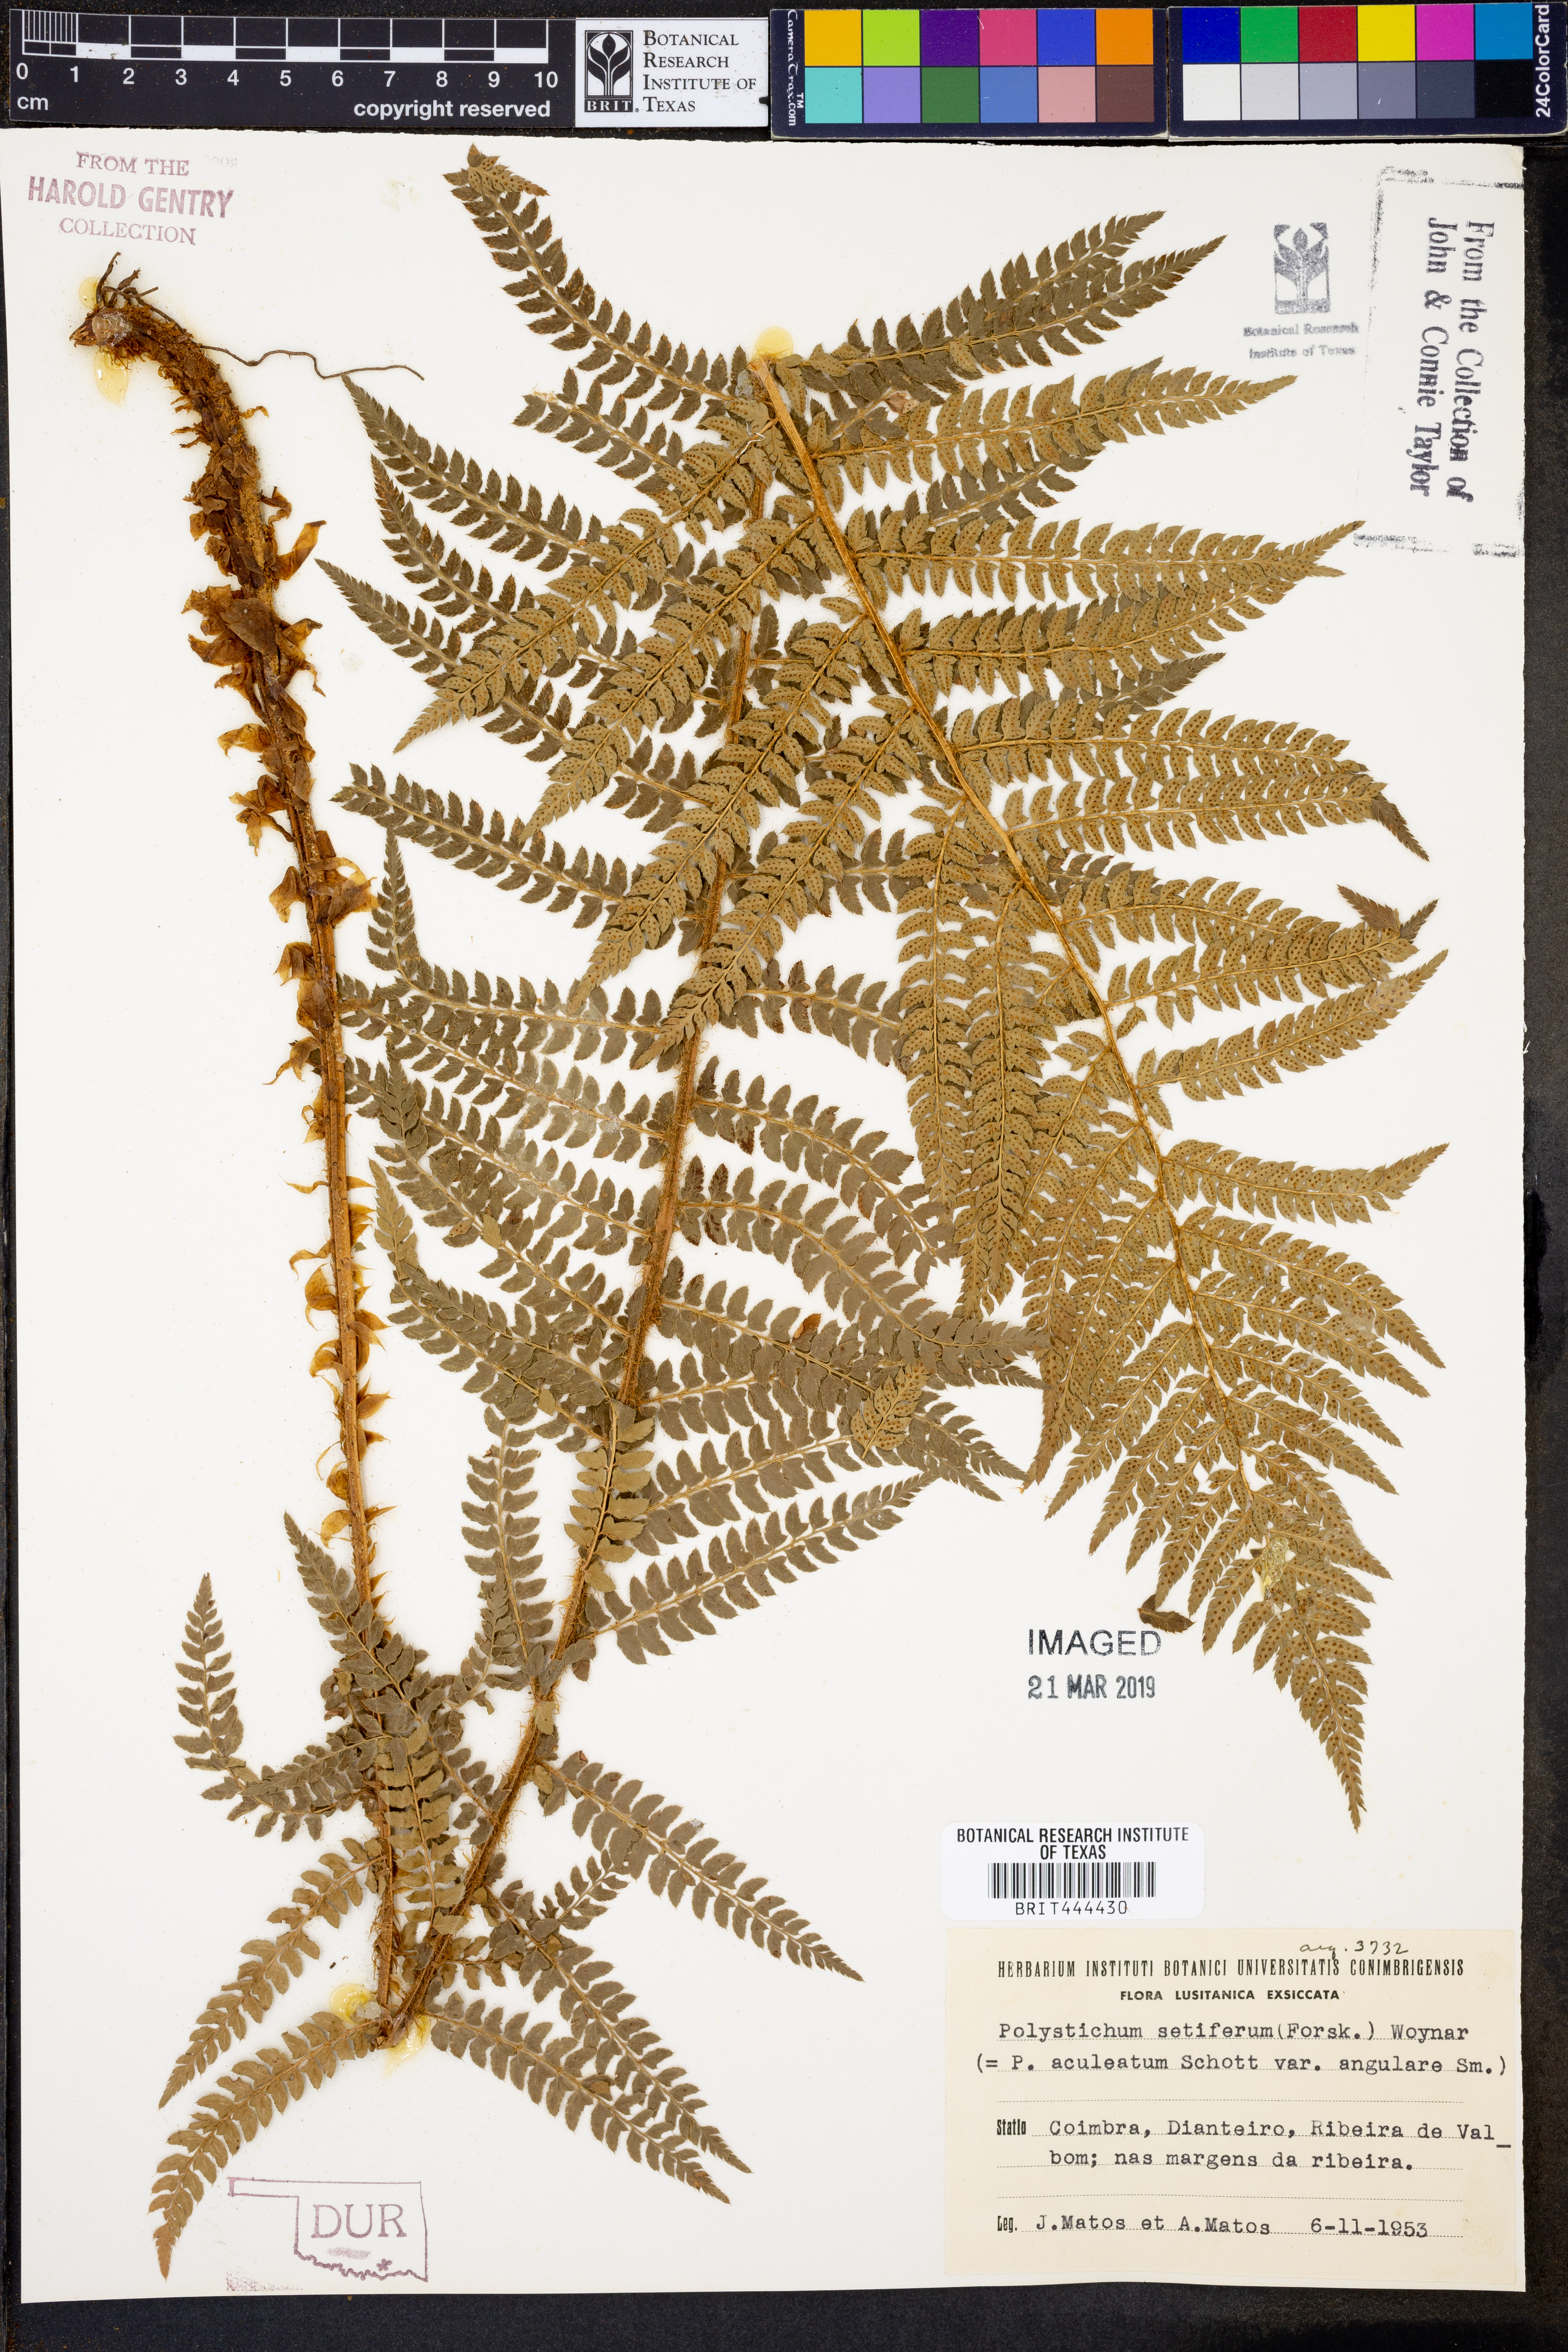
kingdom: Plantae
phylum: Tracheophyta
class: Polypodiopsida
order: Polypodiales
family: Dryopteridaceae
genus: Polystichum
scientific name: Polystichum setiferum
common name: Soft shield-fern
